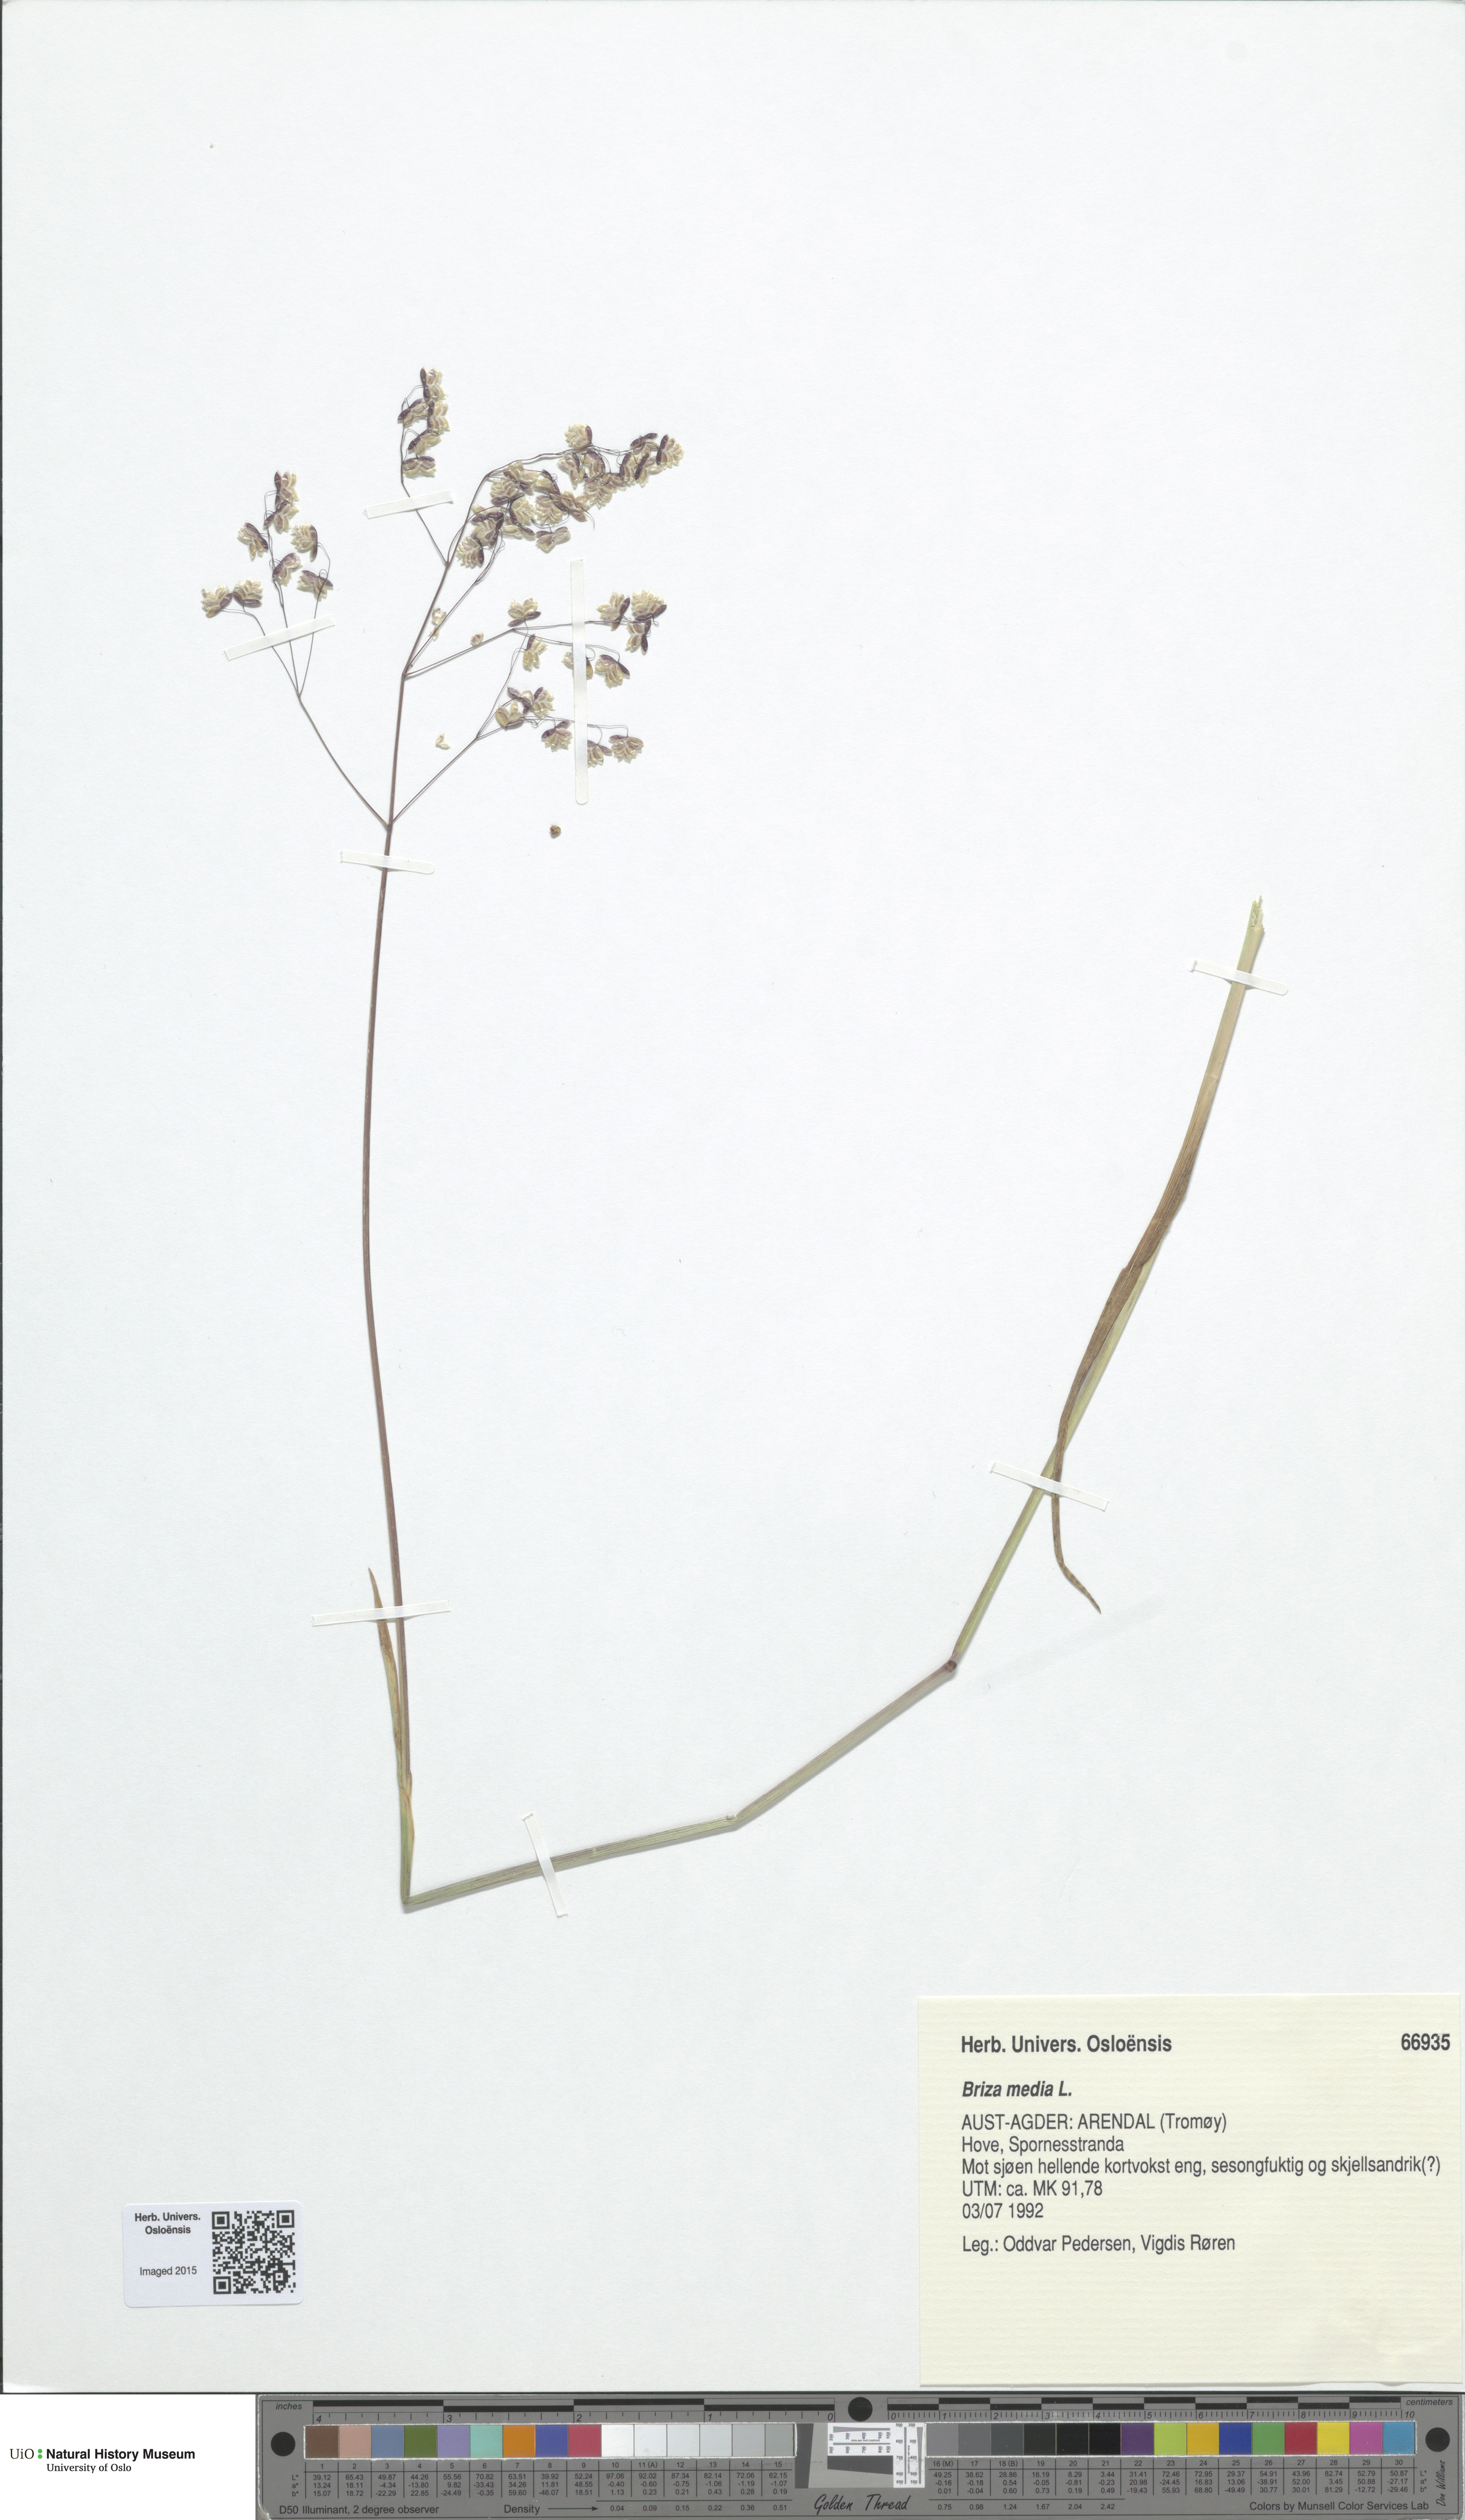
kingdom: Plantae
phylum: Tracheophyta
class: Liliopsida
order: Poales
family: Poaceae
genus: Briza
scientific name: Briza media
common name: Quaking grass
